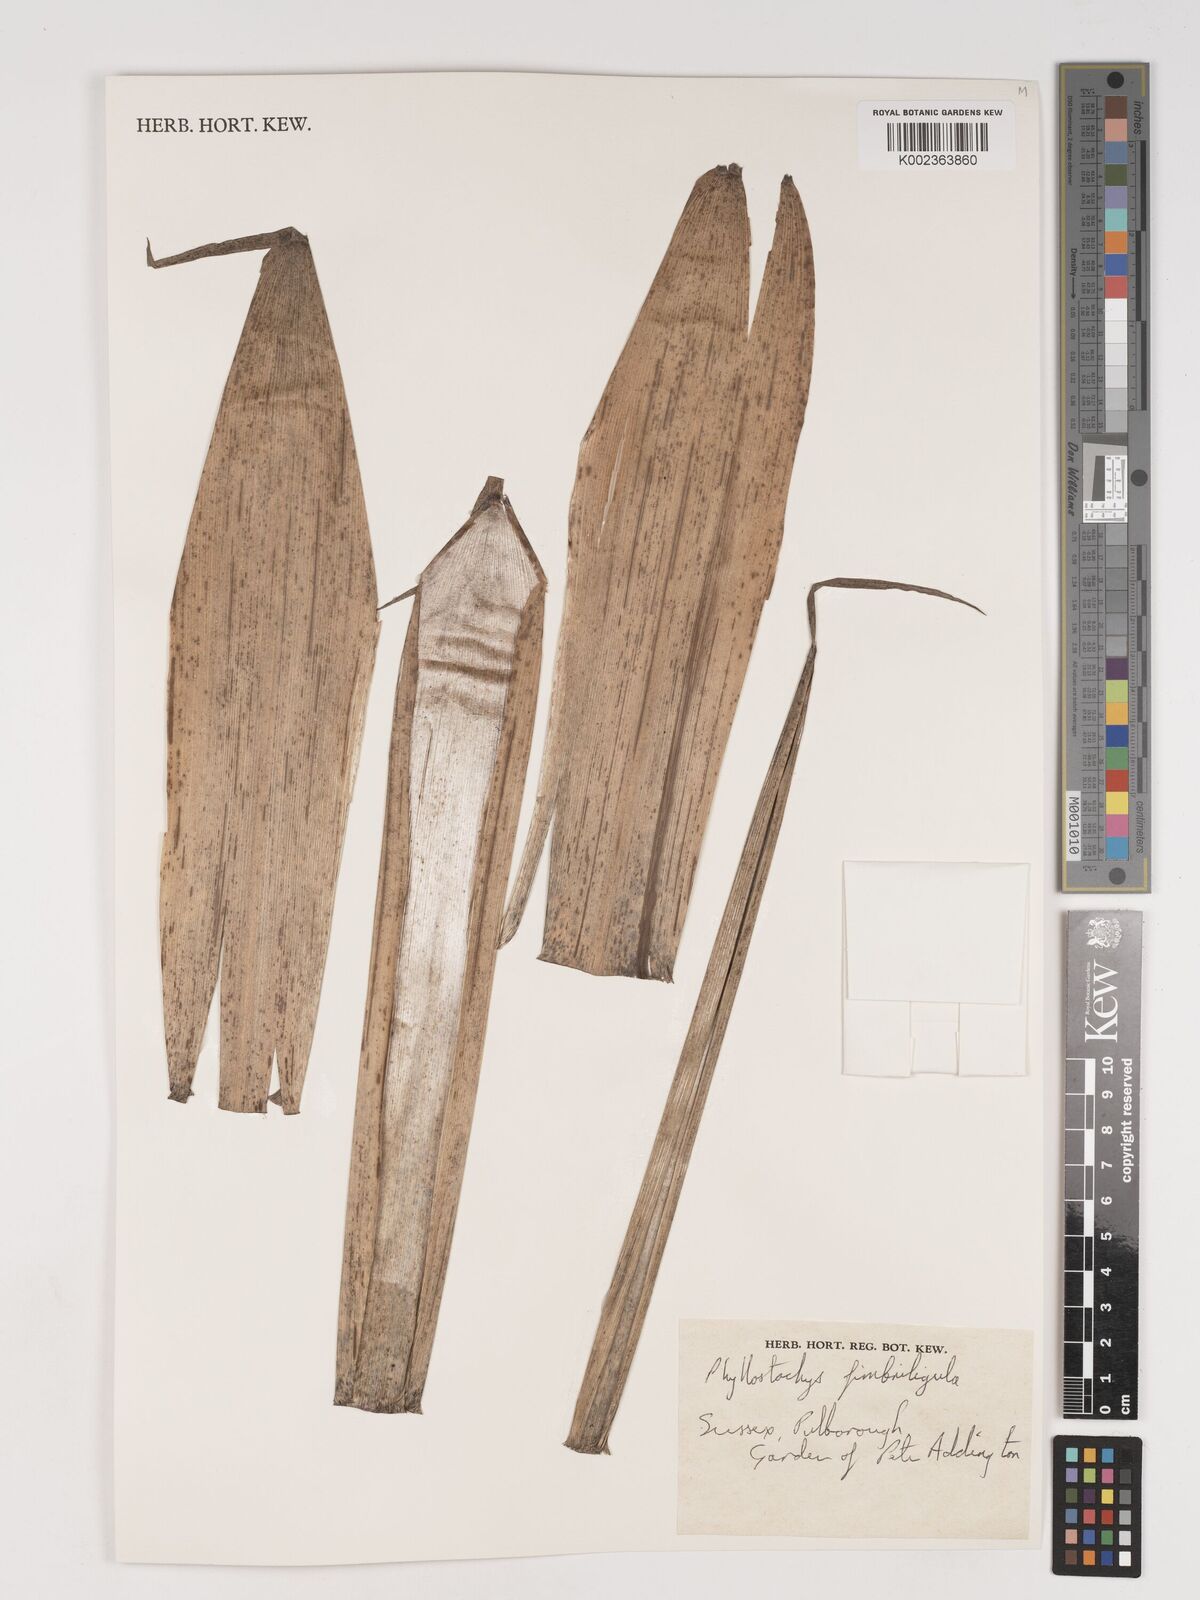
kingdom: Plantae
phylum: Tracheophyta
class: Liliopsida
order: Poales
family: Poaceae
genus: Phyllostachys
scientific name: Phyllostachys
